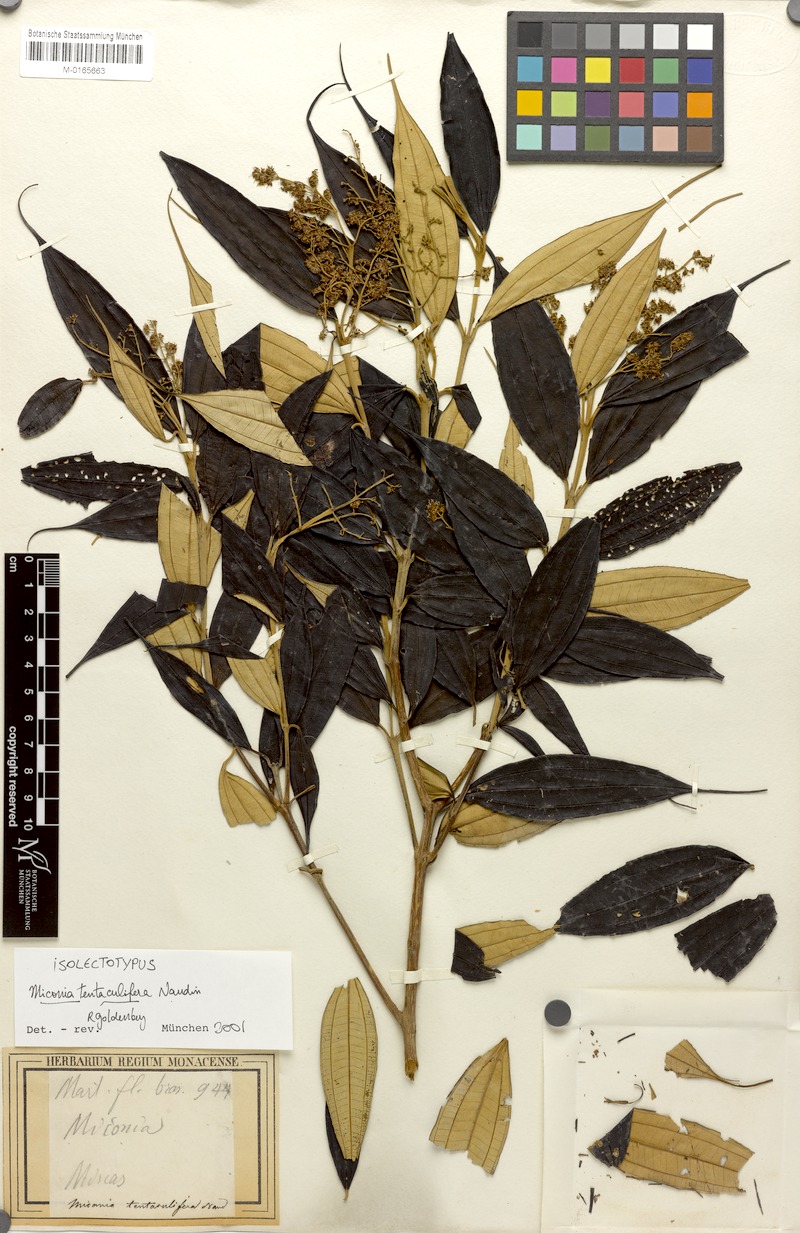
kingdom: Plantae
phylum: Tracheophyta
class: Magnoliopsida
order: Myrtales
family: Melastomataceae
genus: Miconia
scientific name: Miconia tentaculifera
